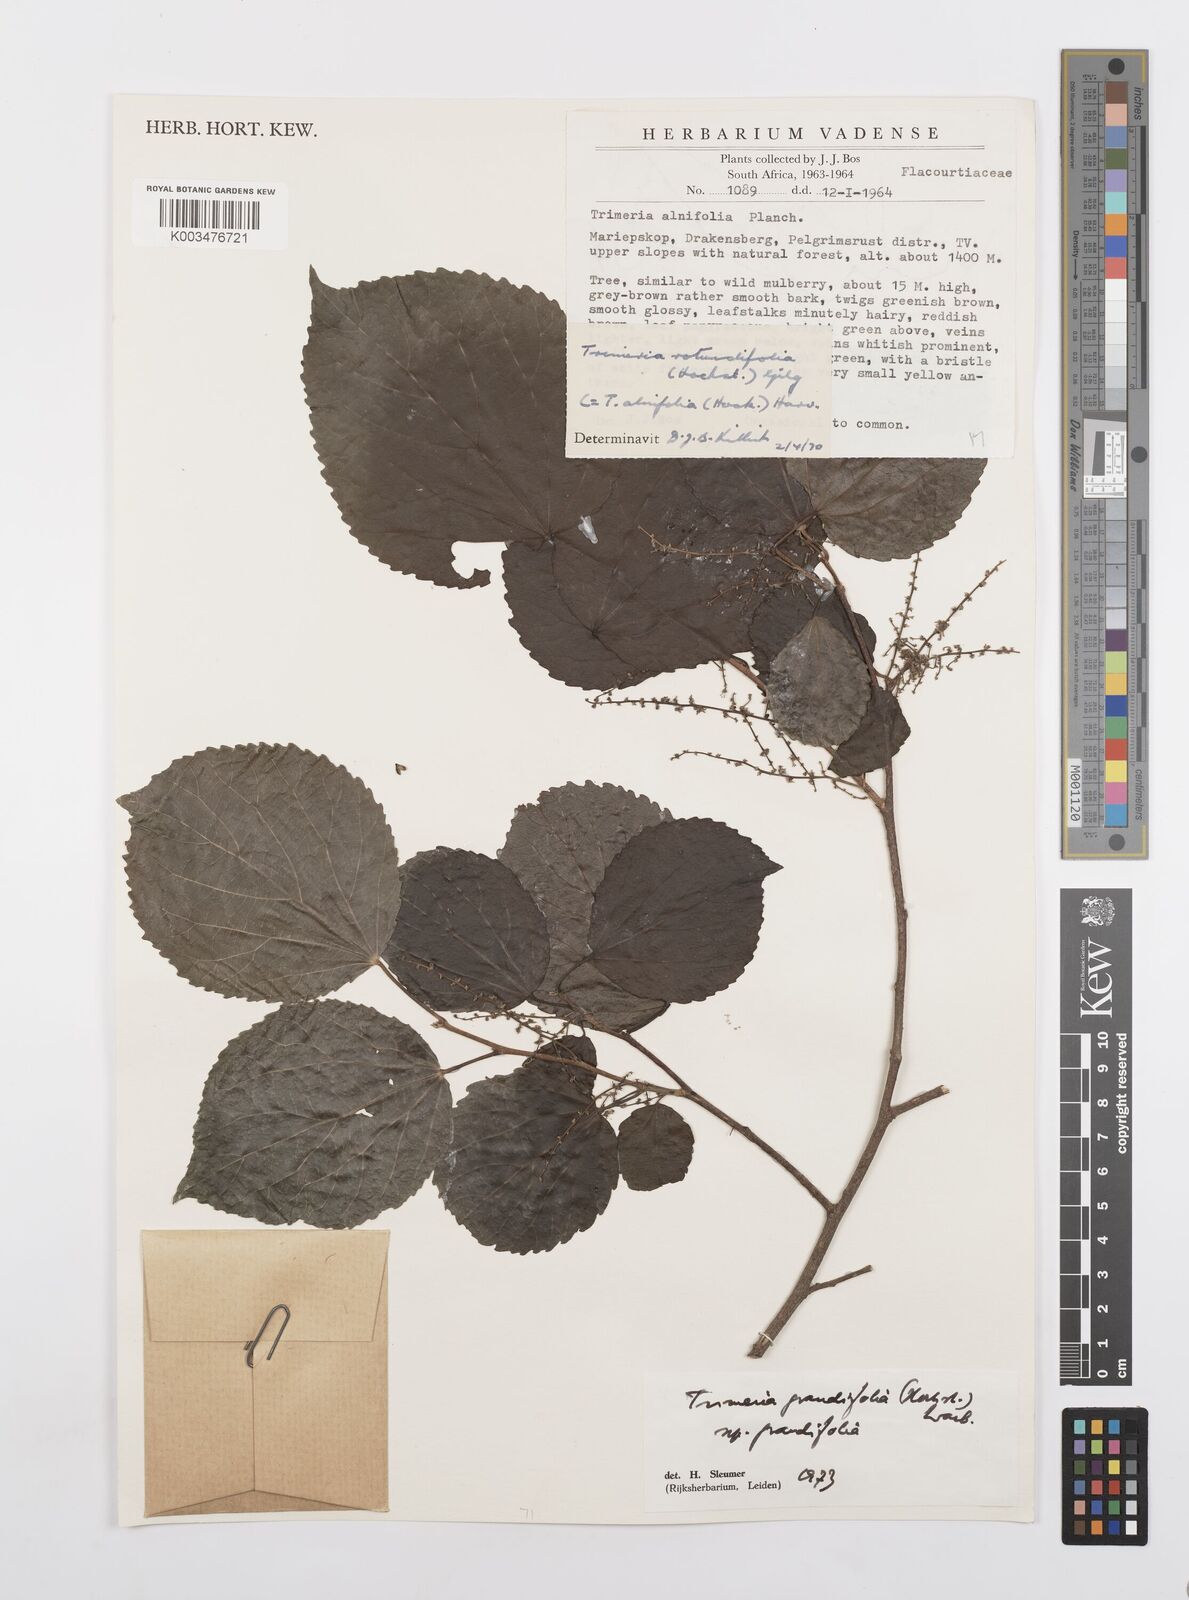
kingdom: Plantae
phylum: Tracheophyta
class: Magnoliopsida
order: Malpighiales
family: Salicaceae
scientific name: Salicaceae
